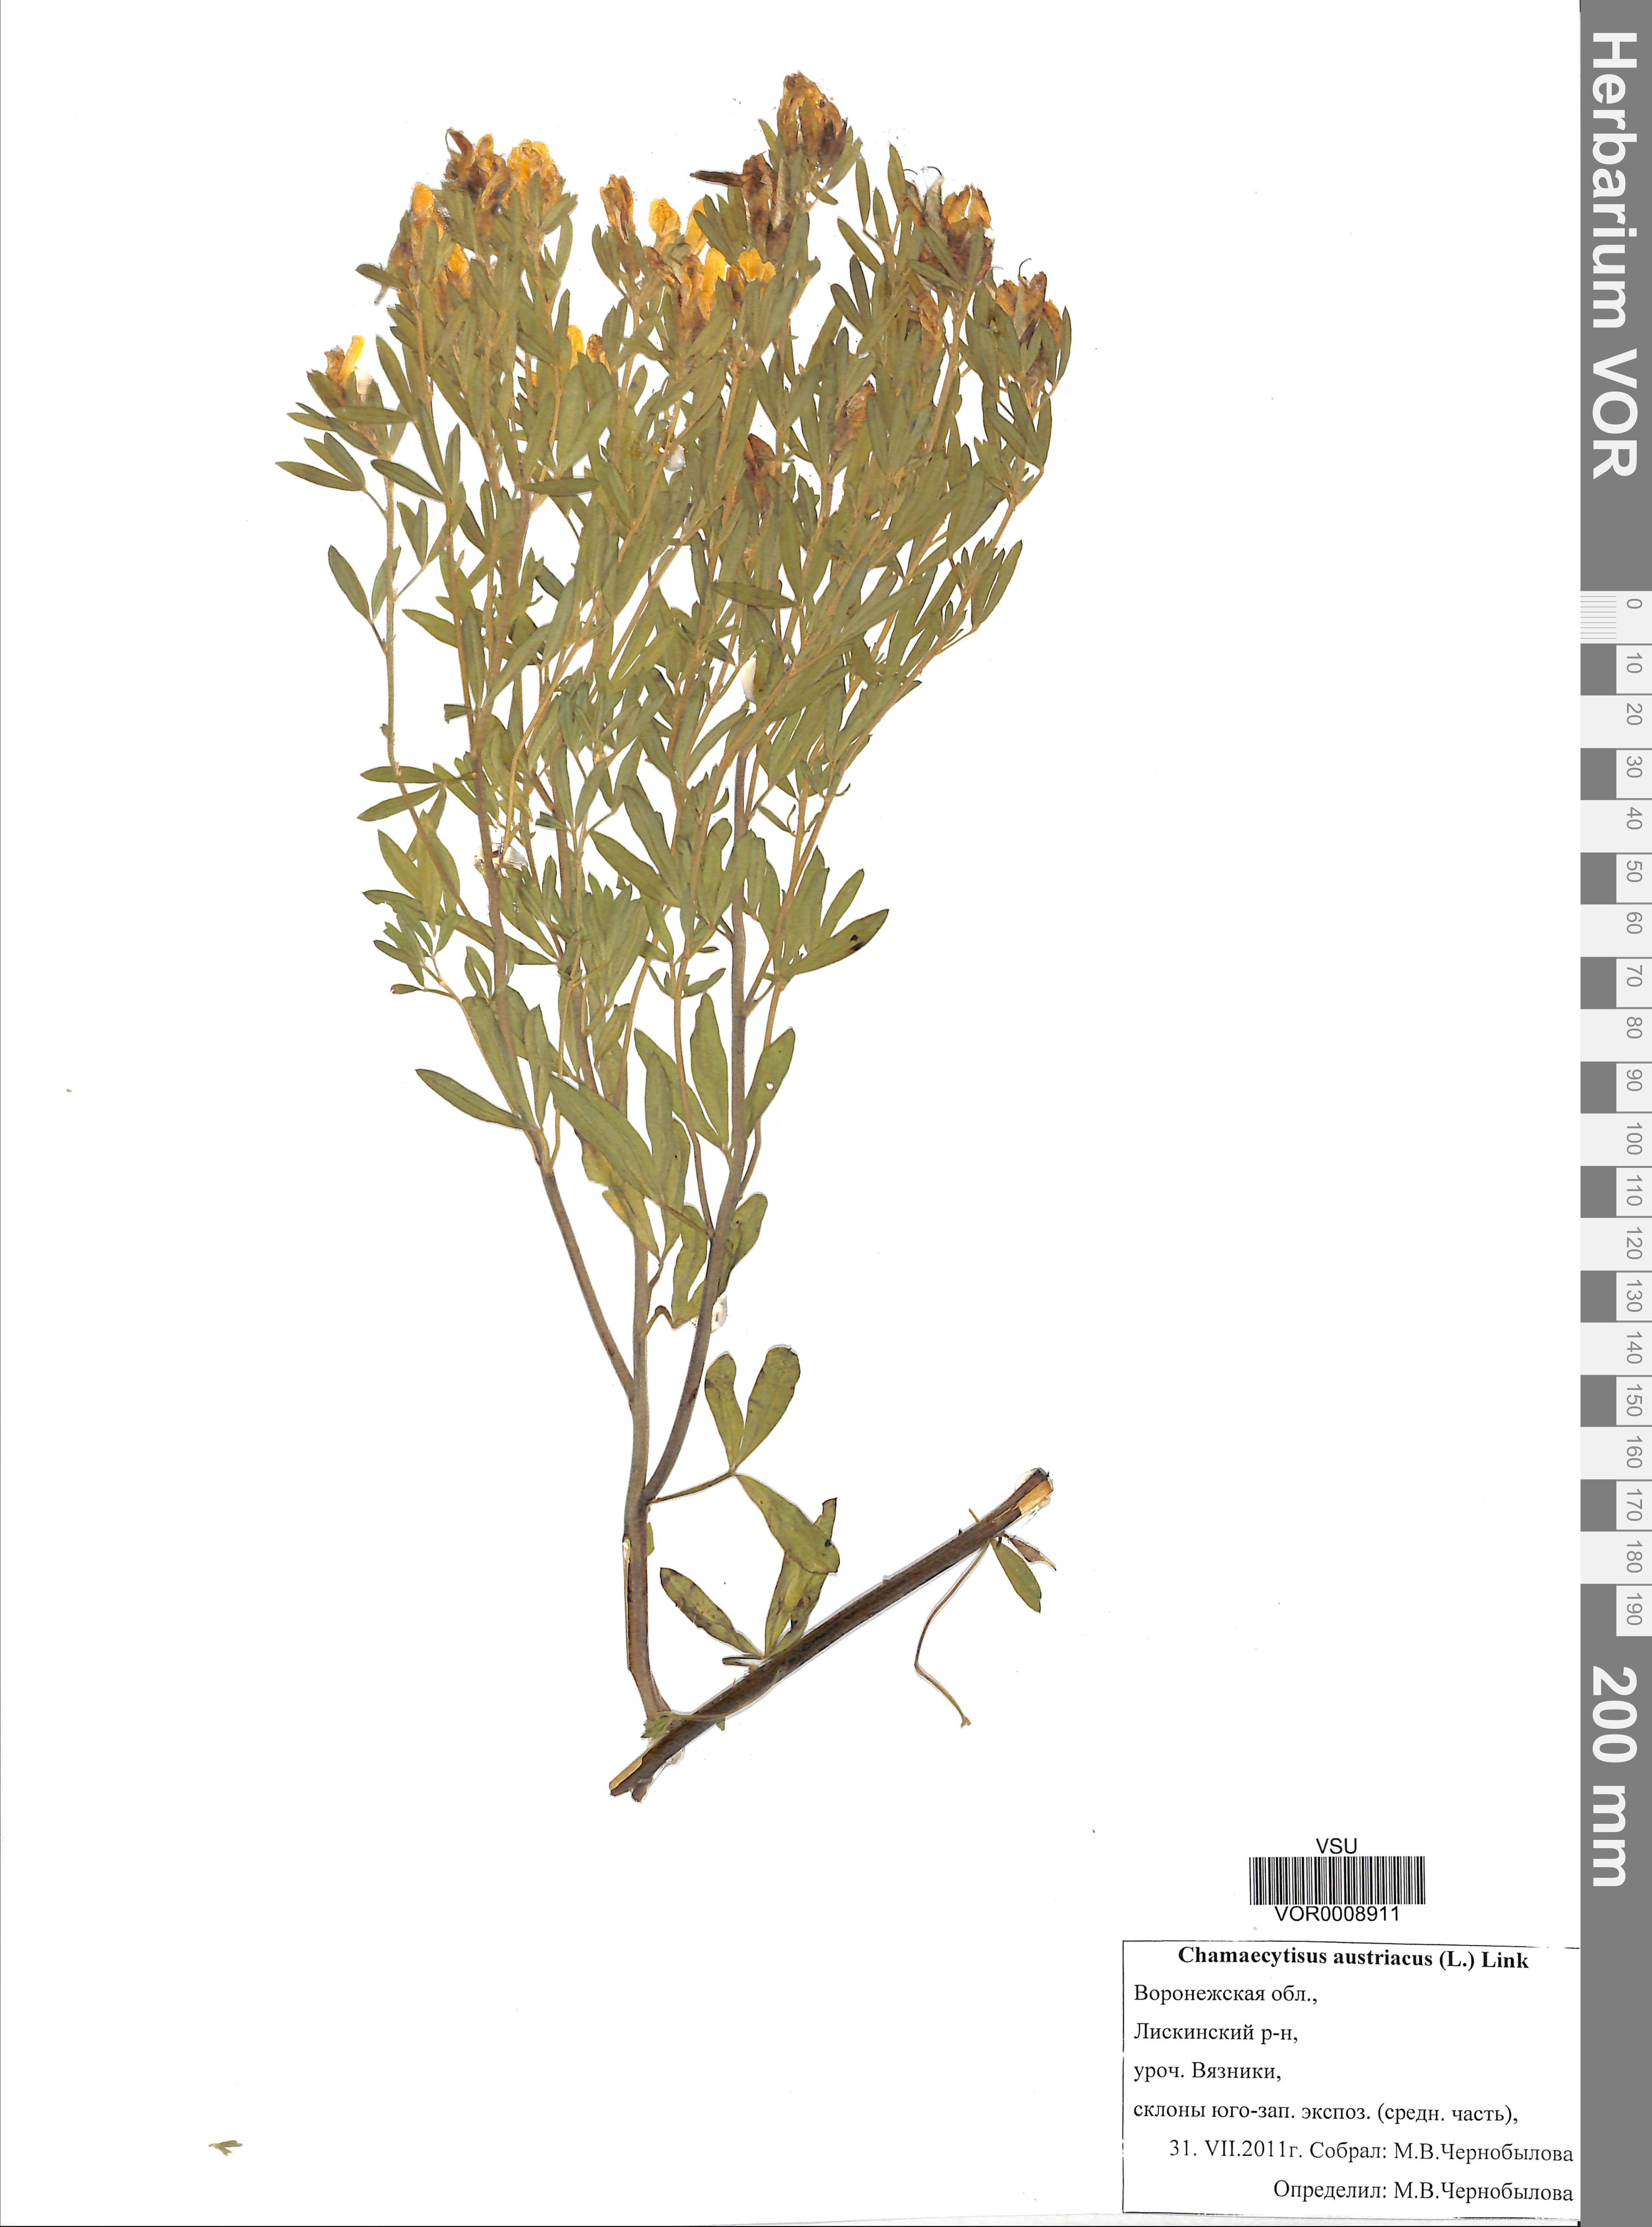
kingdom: Plantae
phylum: Tracheophyta
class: Magnoliopsida
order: Fabales
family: Fabaceae
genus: Chamaecytisus
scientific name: Chamaecytisus austriacus
